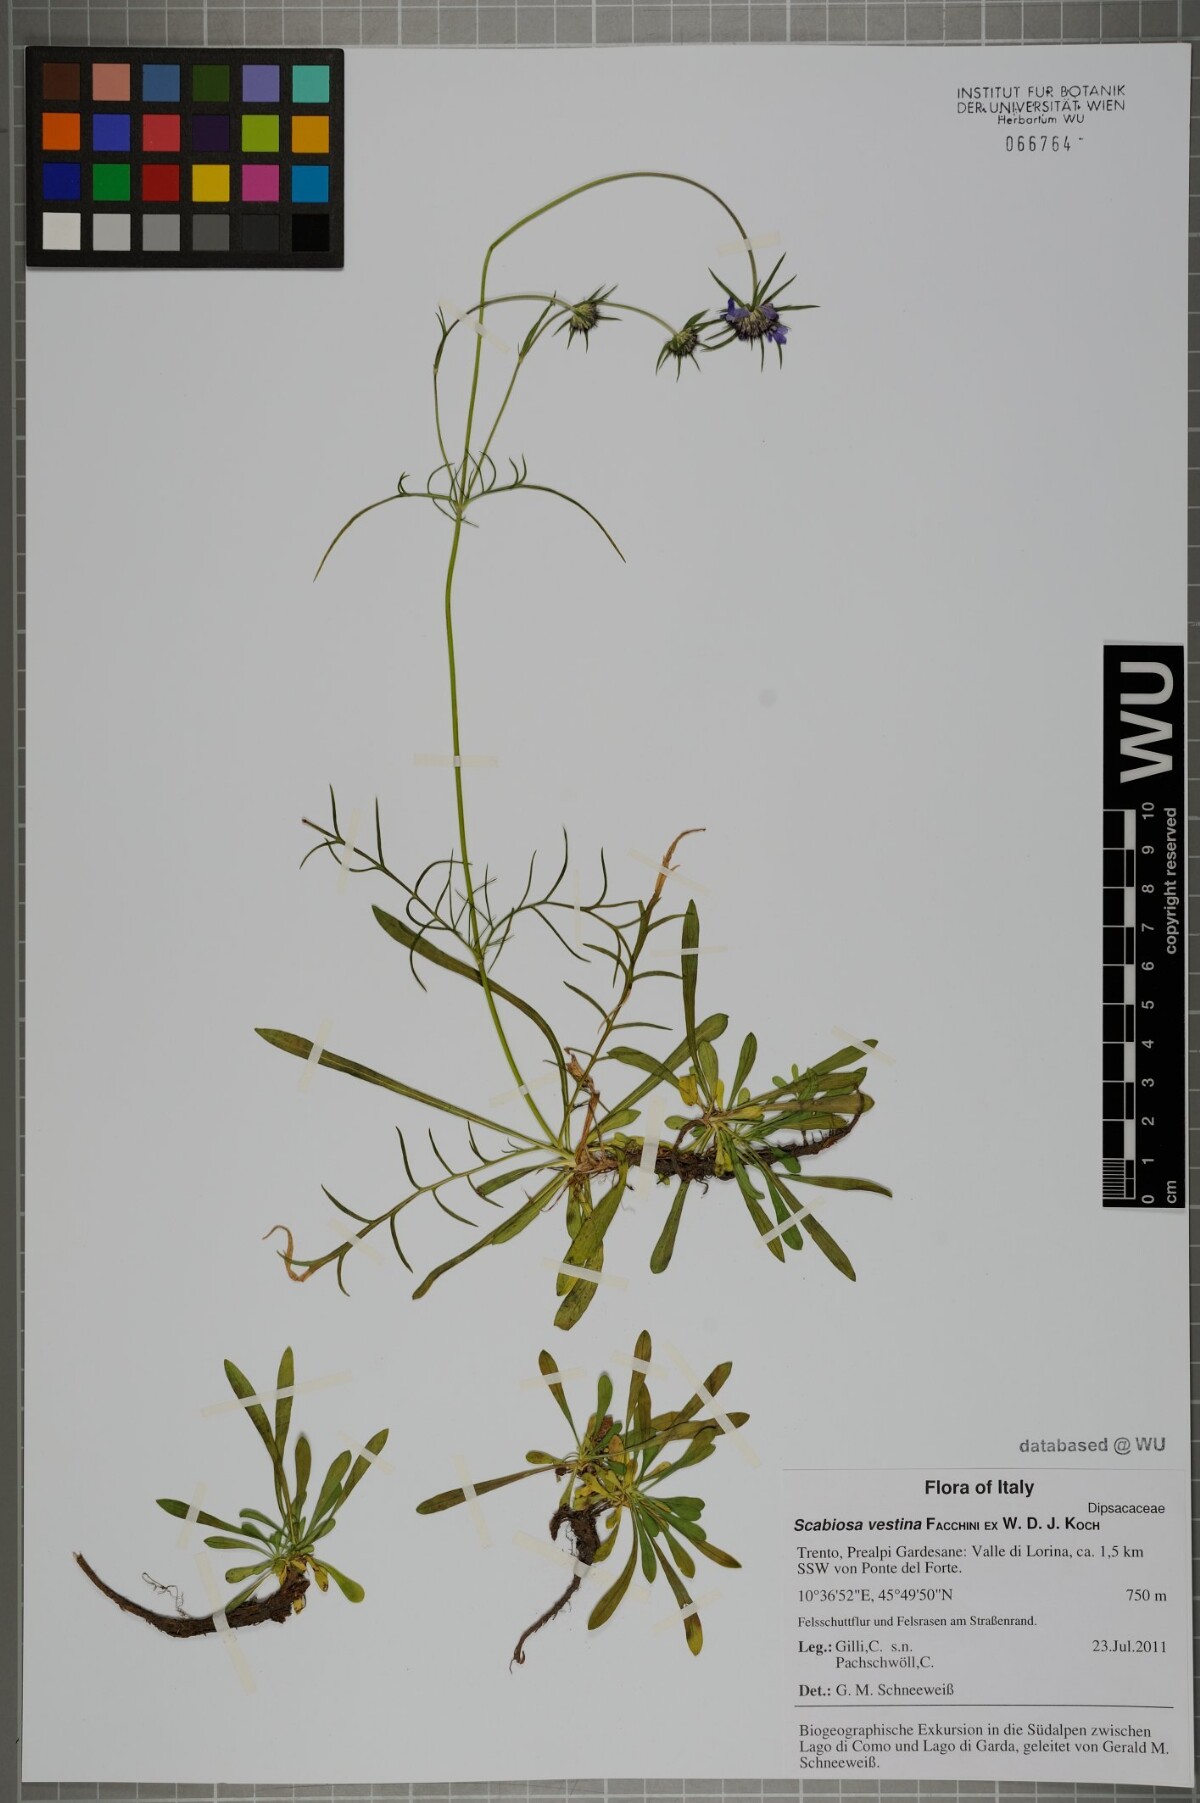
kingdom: Plantae
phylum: Tracheophyta
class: Magnoliopsida
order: Dipsacales
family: Caprifoliaceae
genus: Scabiosa
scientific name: Scabiosa vestina
